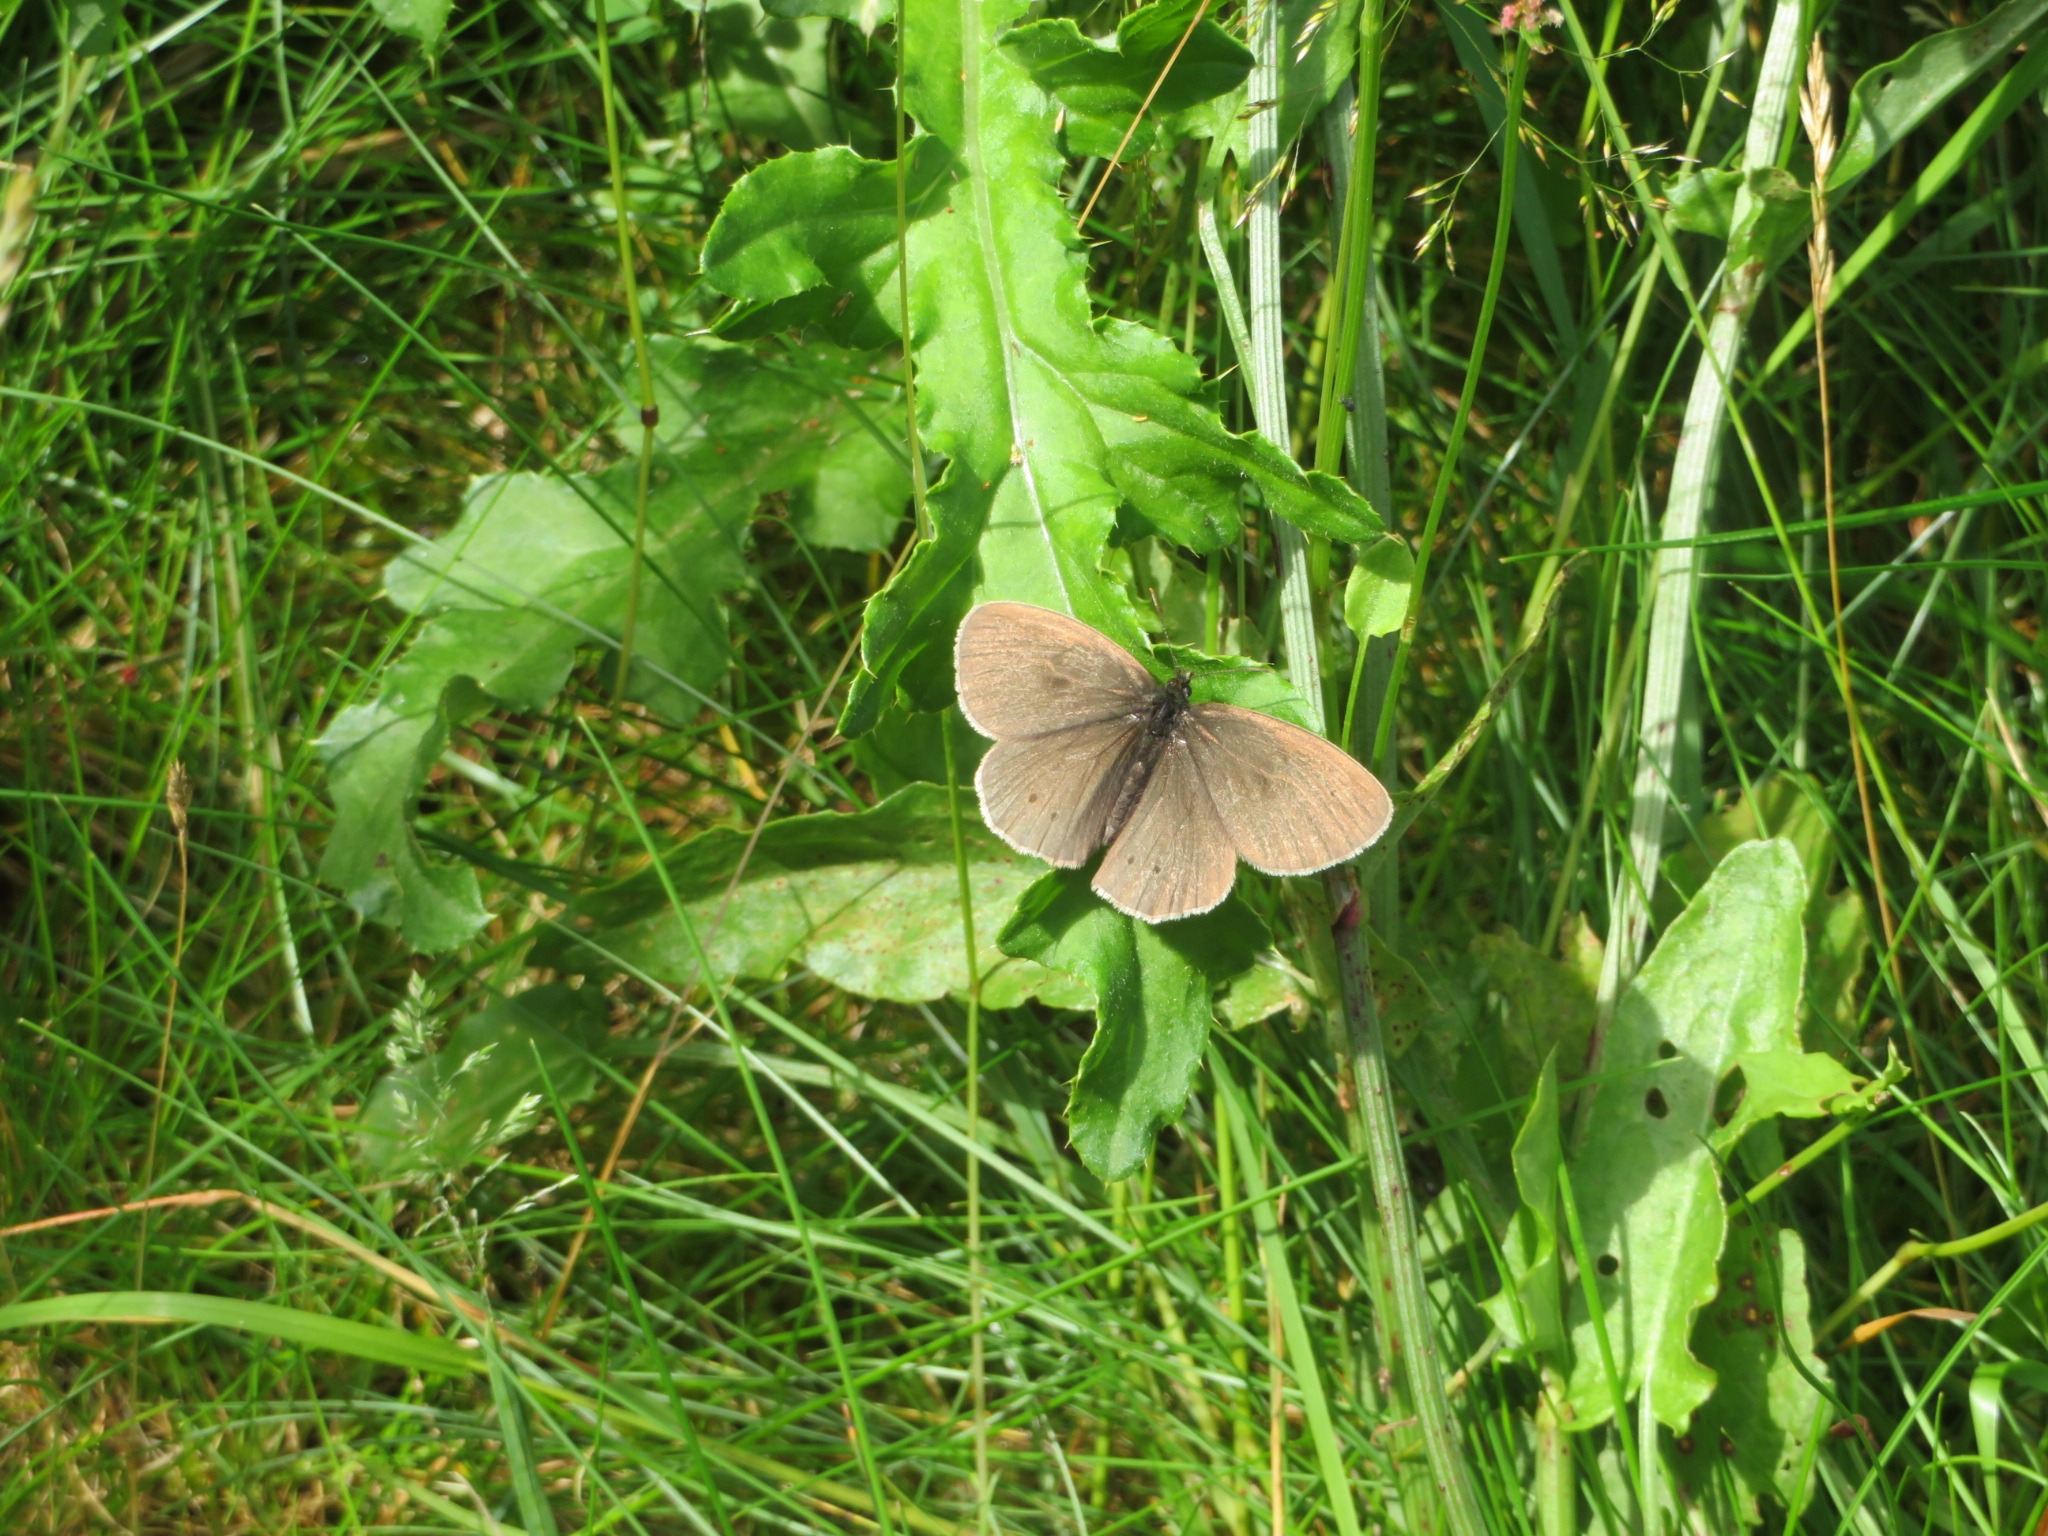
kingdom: Animalia
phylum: Arthropoda
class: Insecta
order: Lepidoptera
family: Nymphalidae
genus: Aphantopus
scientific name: Aphantopus hyperantus
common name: Engrandøje
